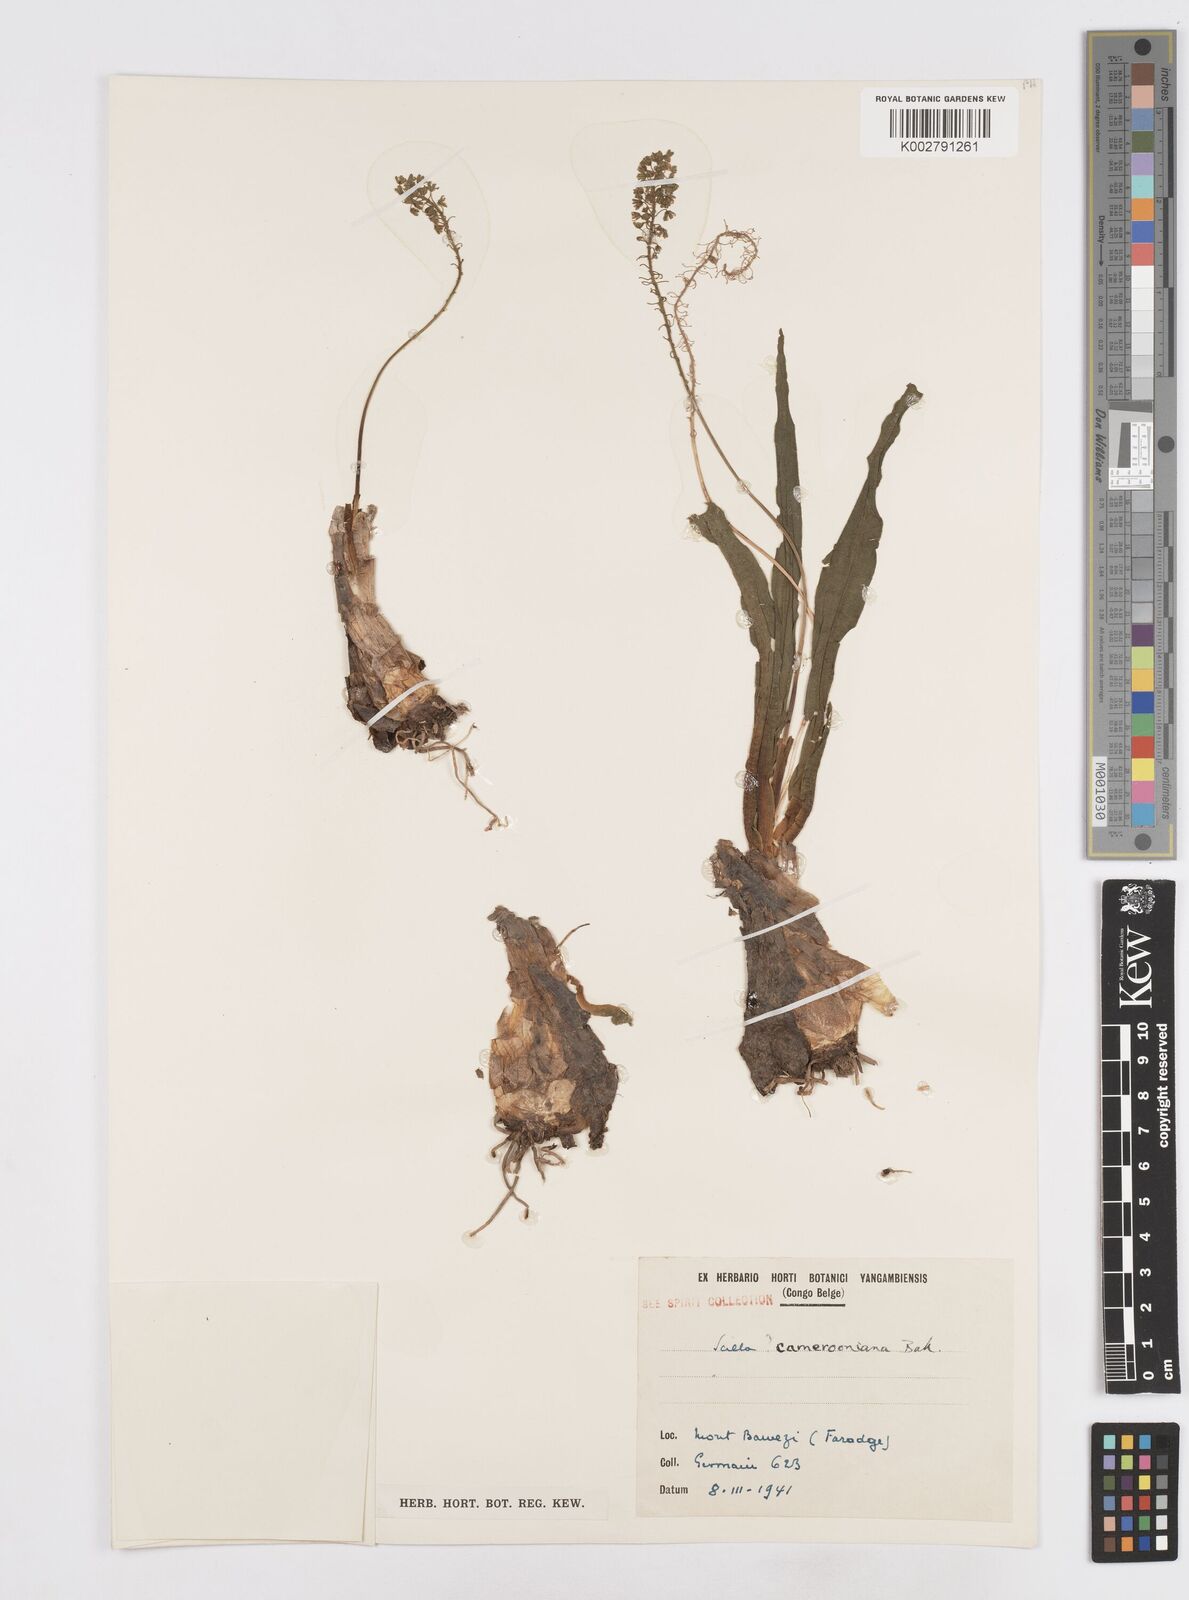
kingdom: Plantae
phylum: Tracheophyta
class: Liliopsida
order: Asparagales
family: Asparagaceae
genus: Ledebouria
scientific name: Ledebouria camerooniana
